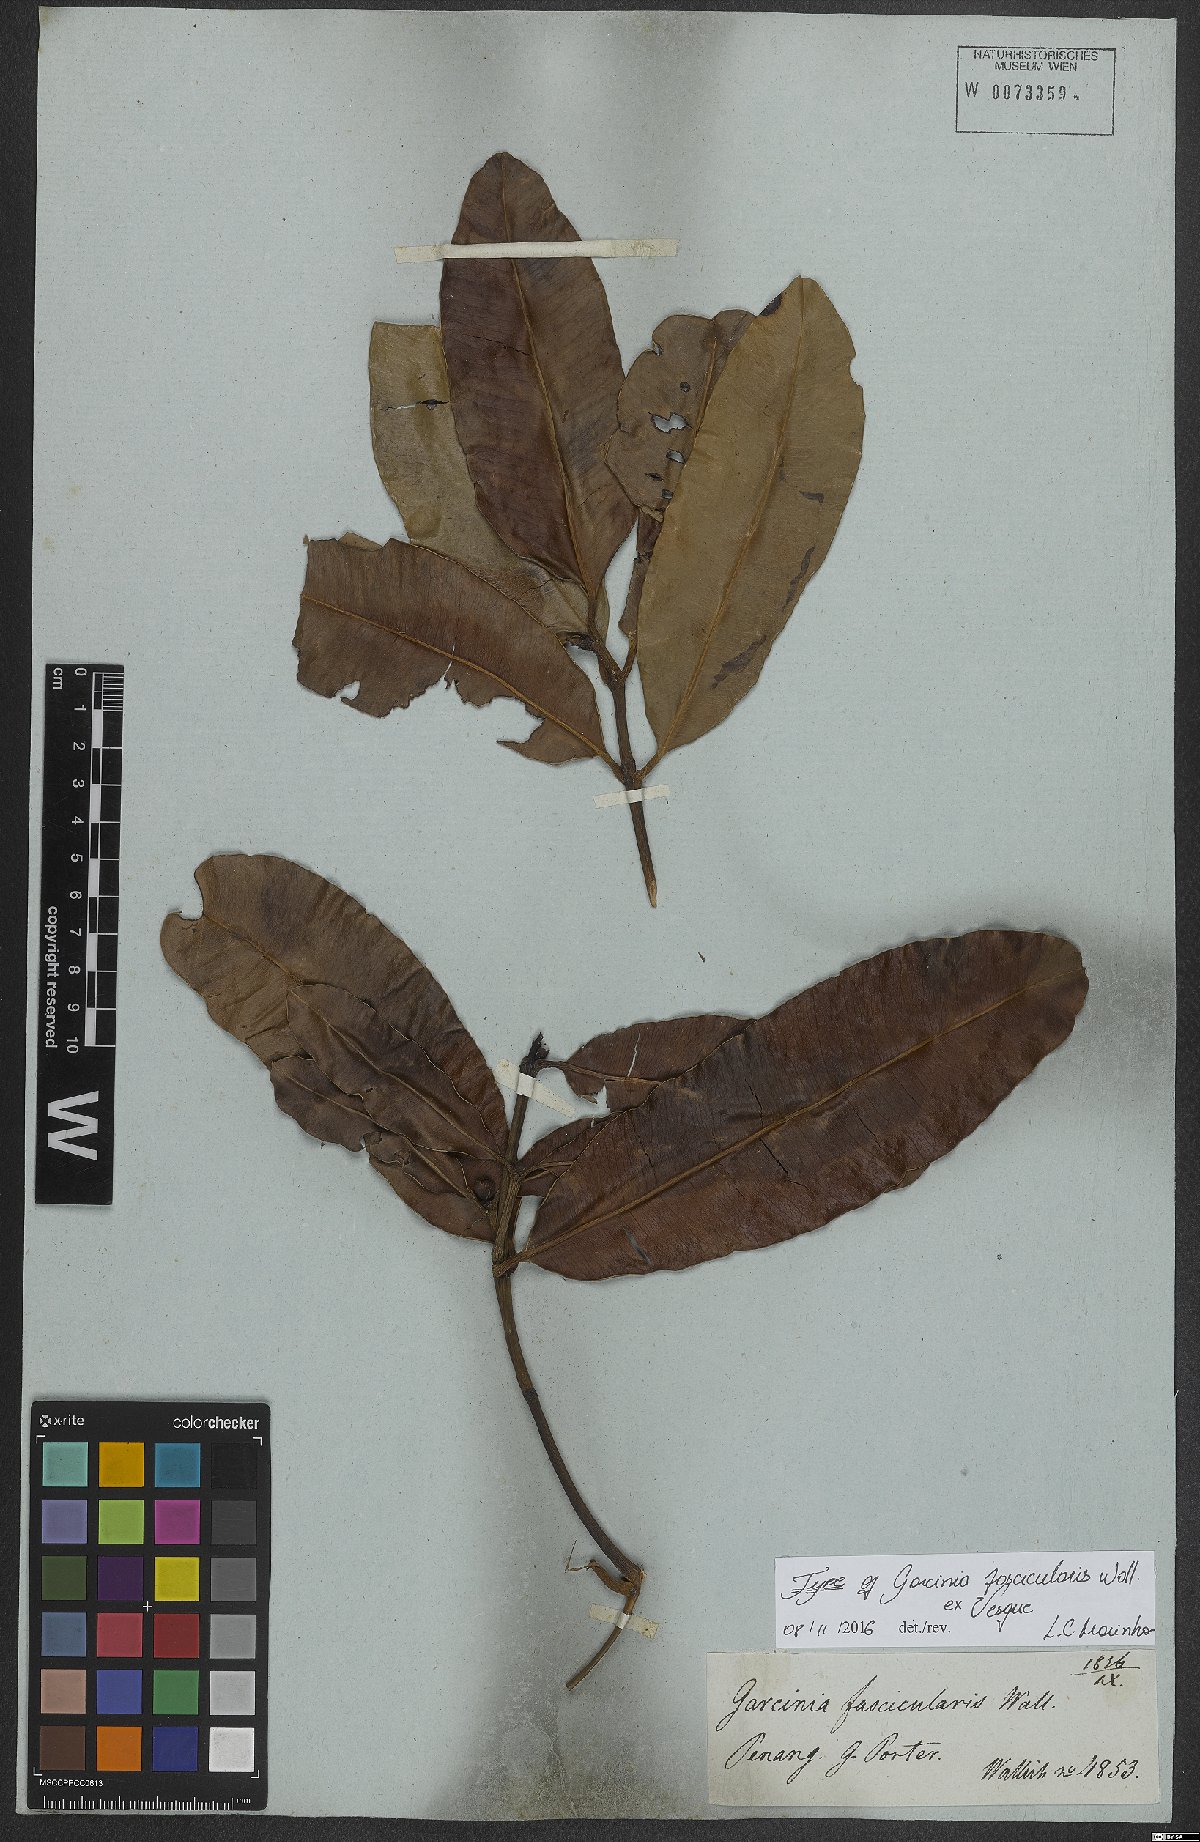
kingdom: Plantae
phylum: Tracheophyta
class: Magnoliopsida
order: Malpighiales
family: Clusiaceae
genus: Garcinia
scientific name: Garcinia penangiana
